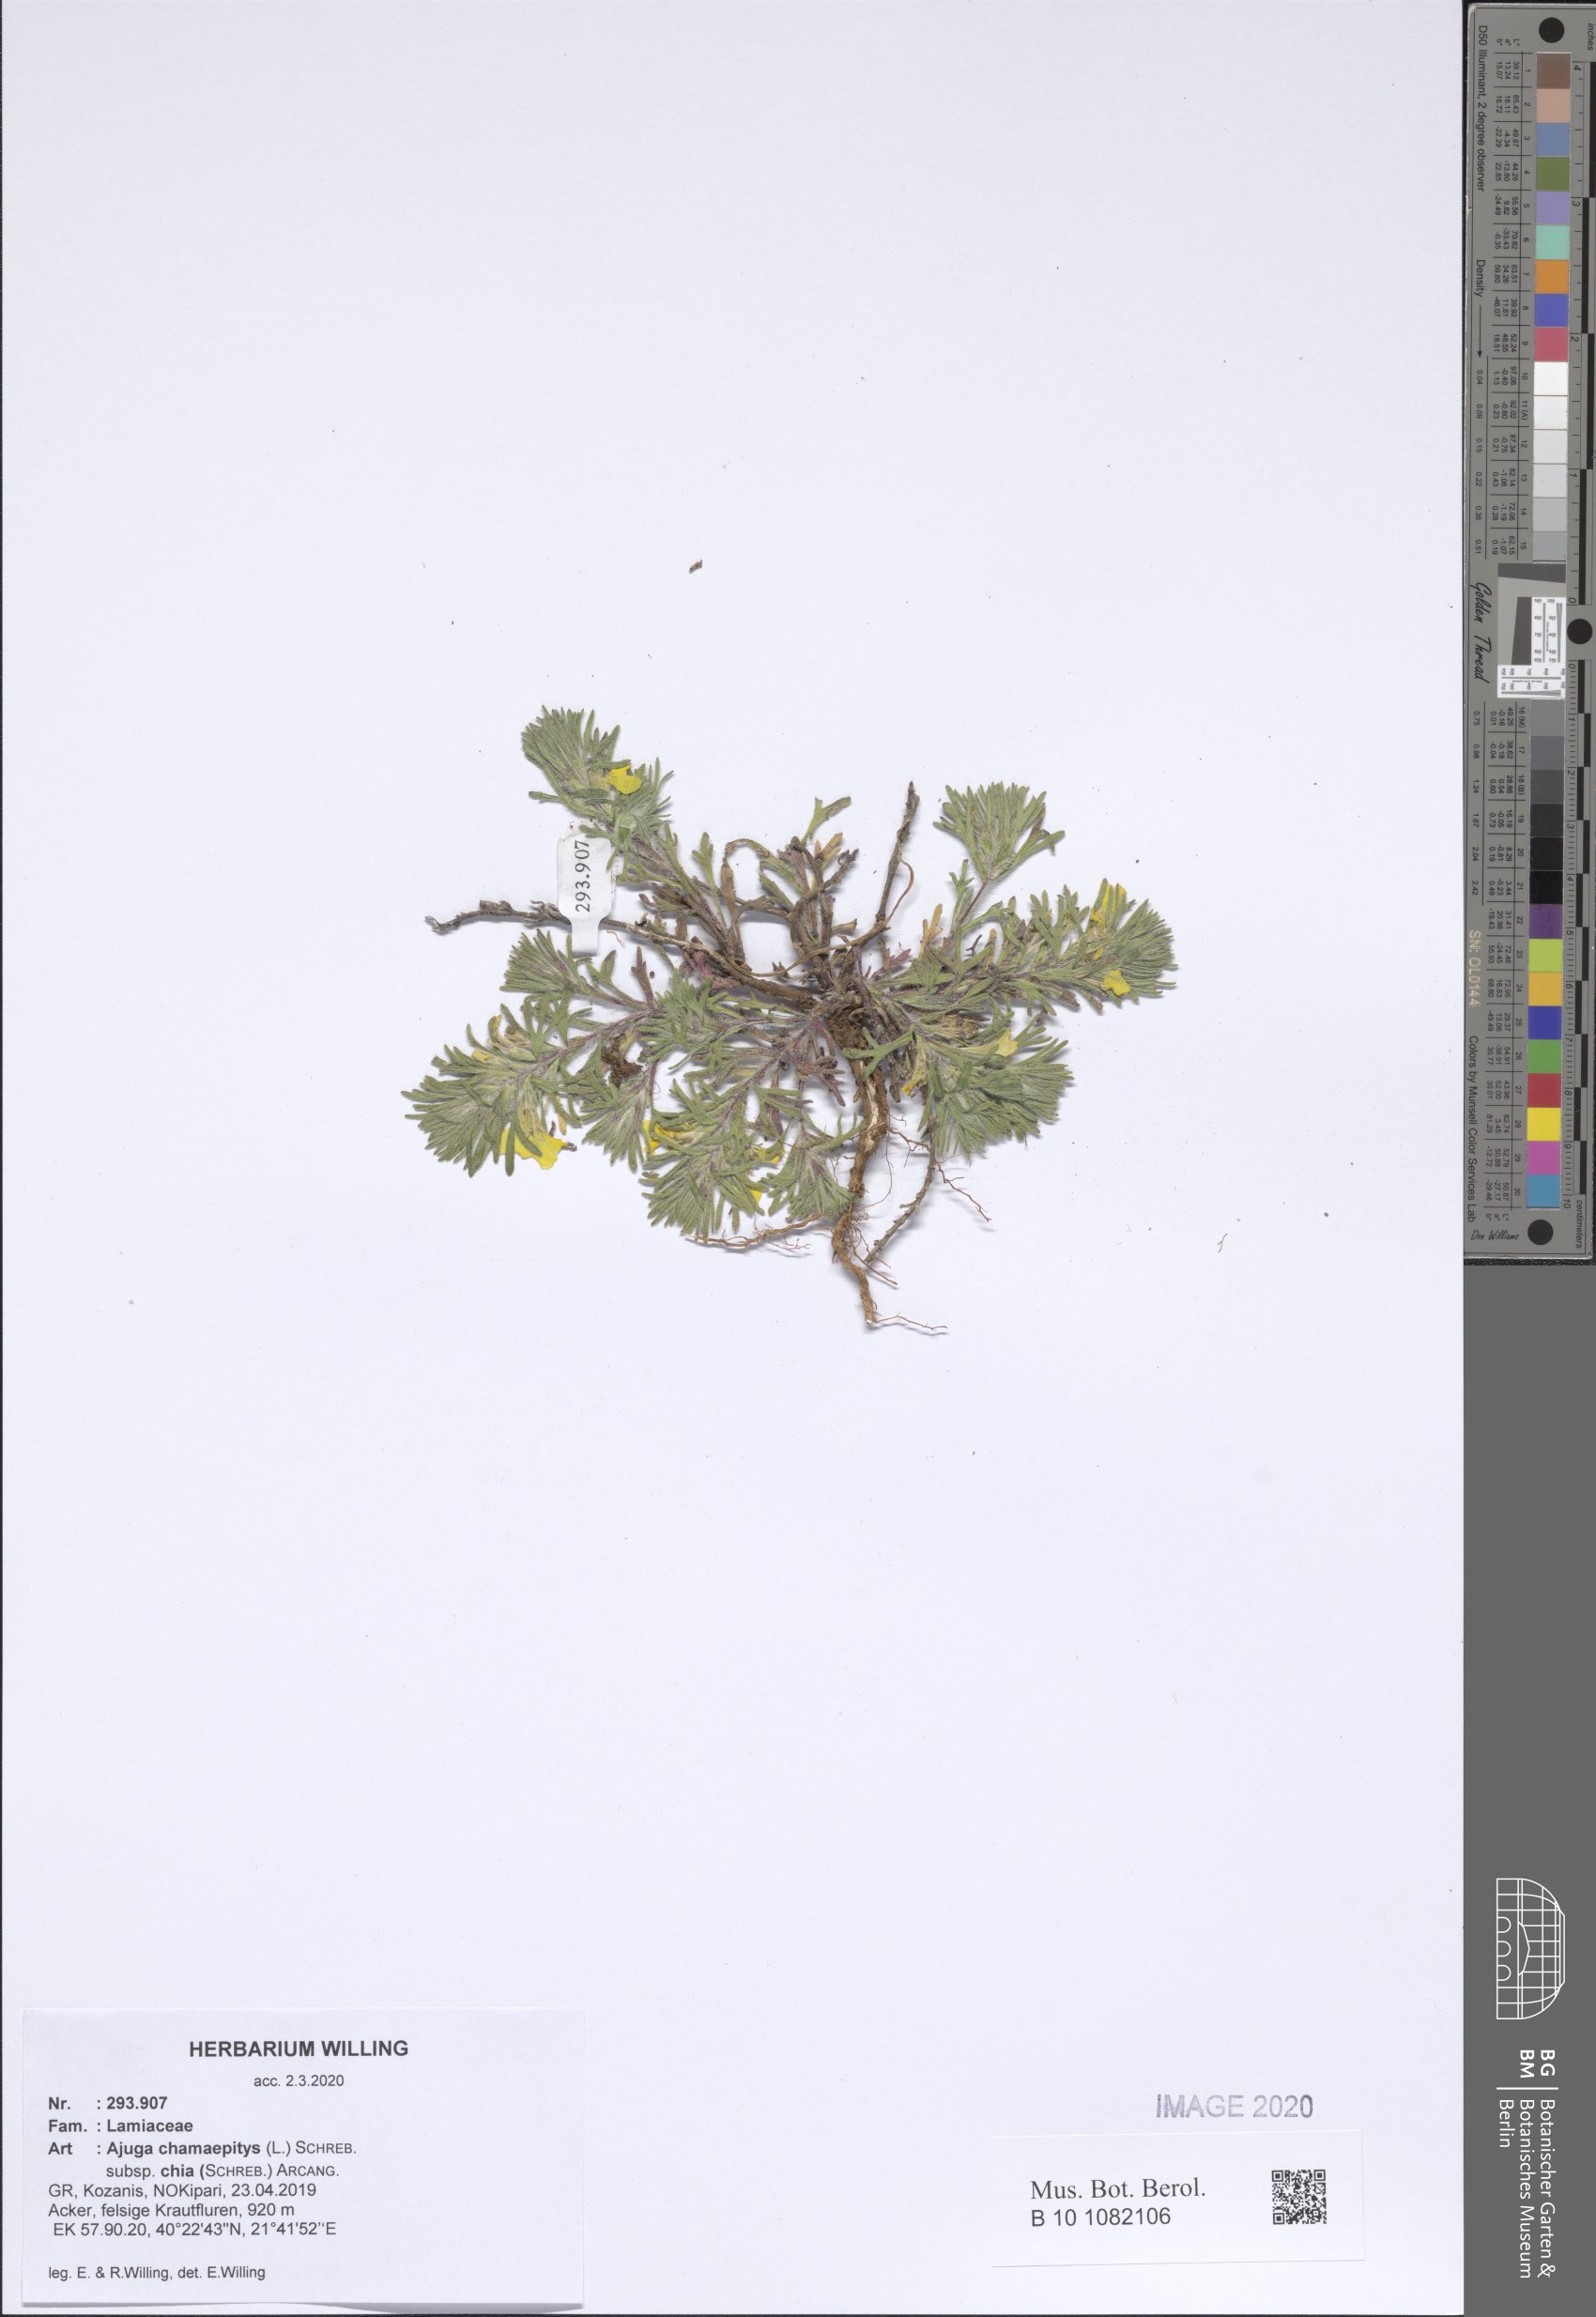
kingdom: Plantae
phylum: Tracheophyta
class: Magnoliopsida
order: Lamiales
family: Lamiaceae
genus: Ajuga
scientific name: Ajuga chamaepitys
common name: Ground-pine
